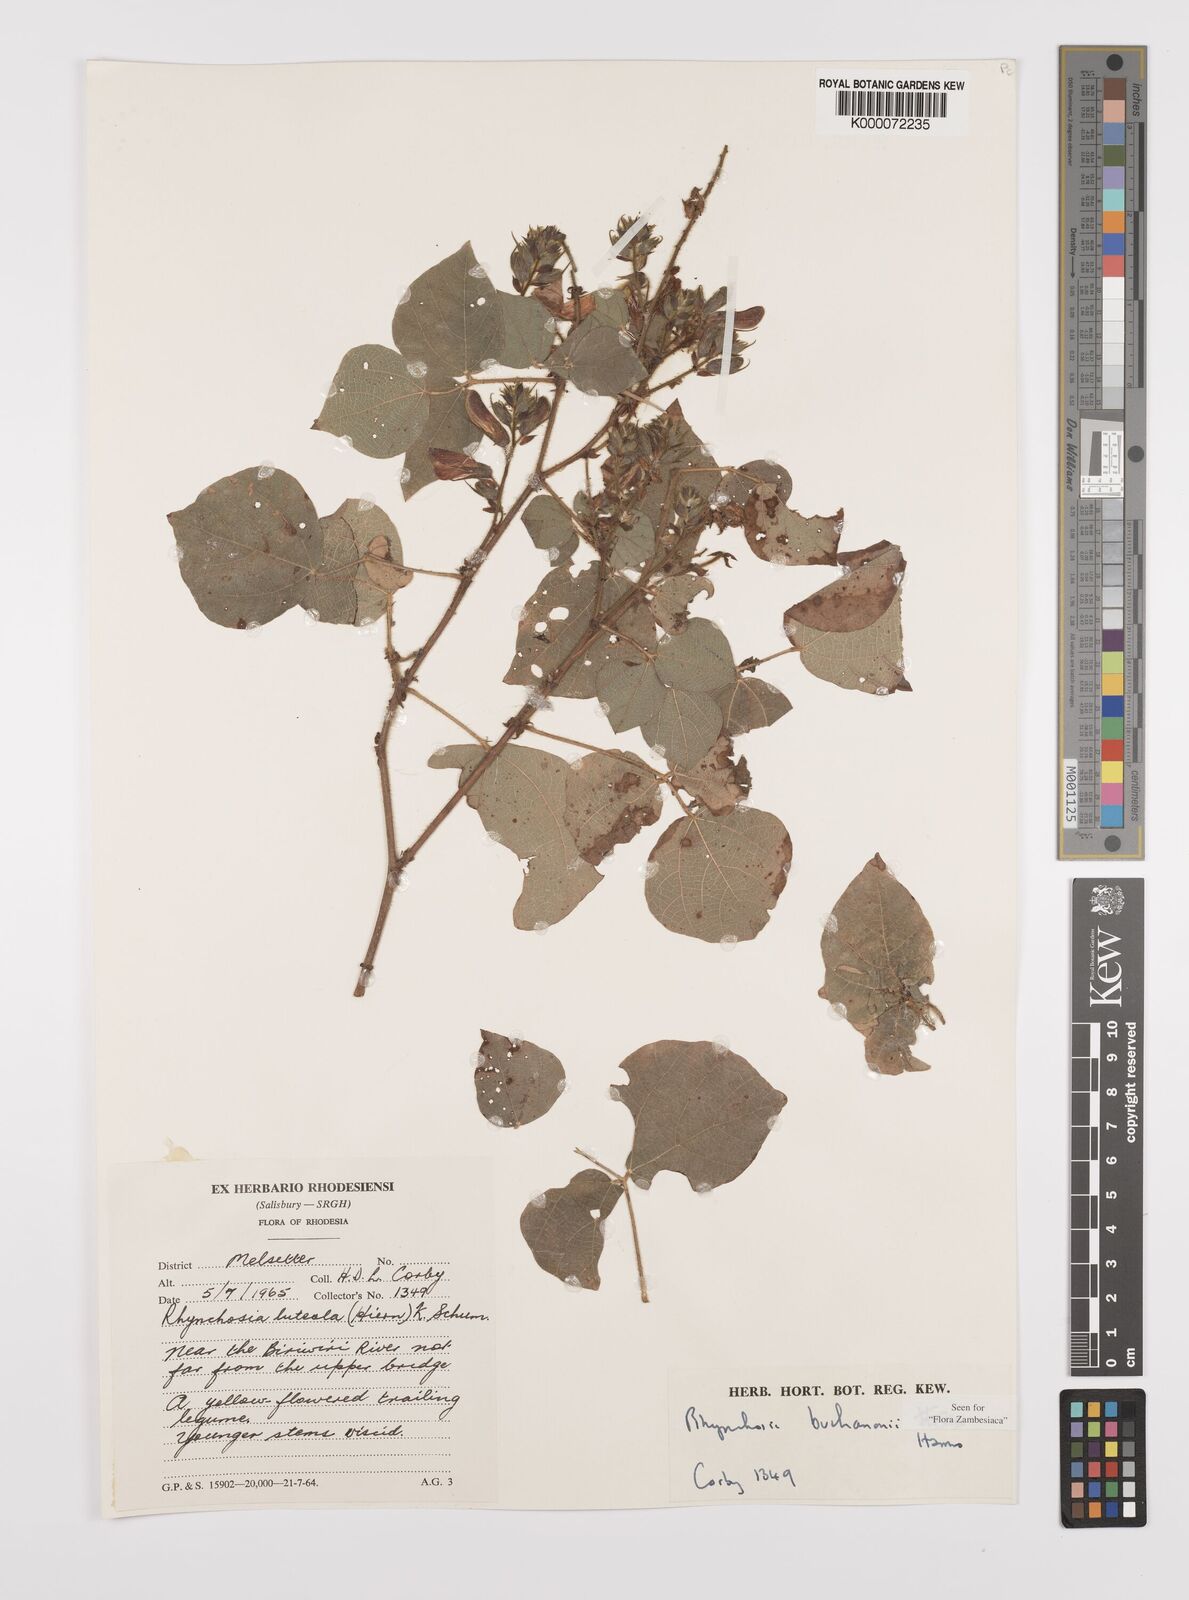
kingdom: Plantae
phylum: Tracheophyta
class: Magnoliopsida
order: Fabales
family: Fabaceae
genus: Rhynchosia
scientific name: Rhynchosia buchananii
